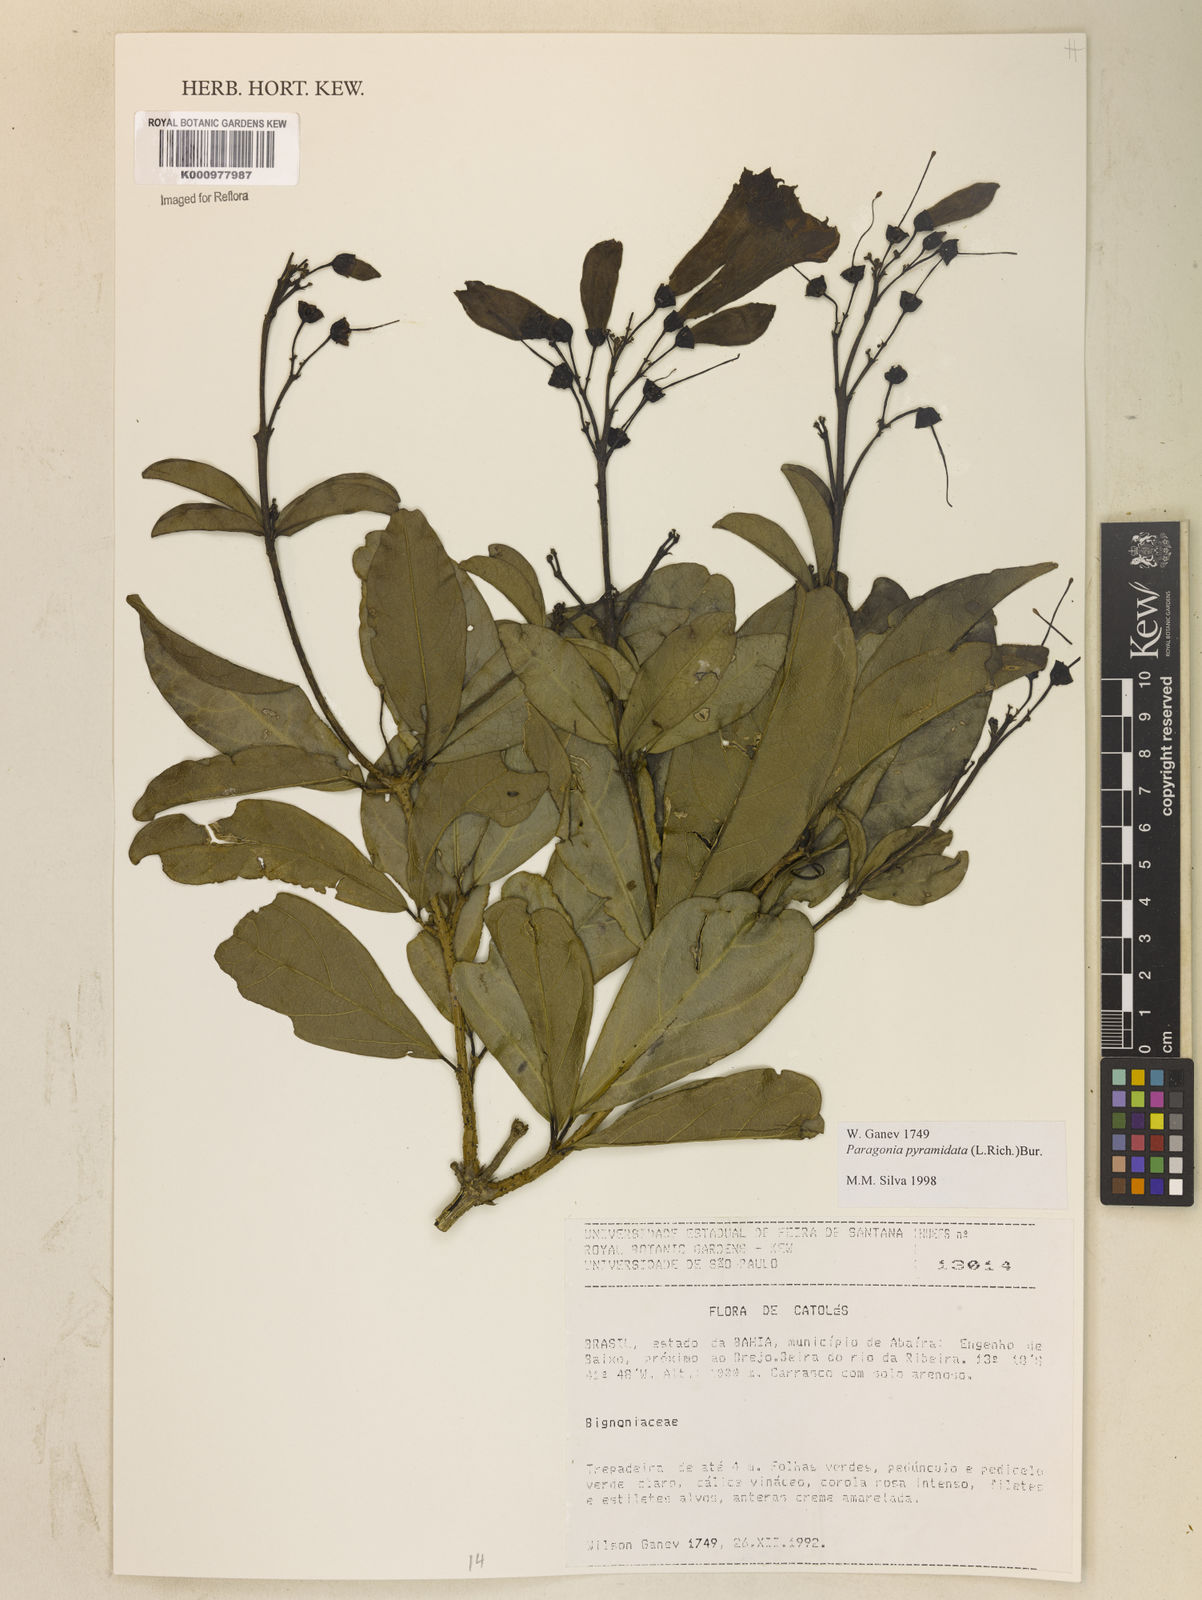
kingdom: Plantae
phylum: Tracheophyta
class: Magnoliopsida
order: Lamiales
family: Bignoniaceae
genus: Tanaecium
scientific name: Tanaecium pyramidatum
